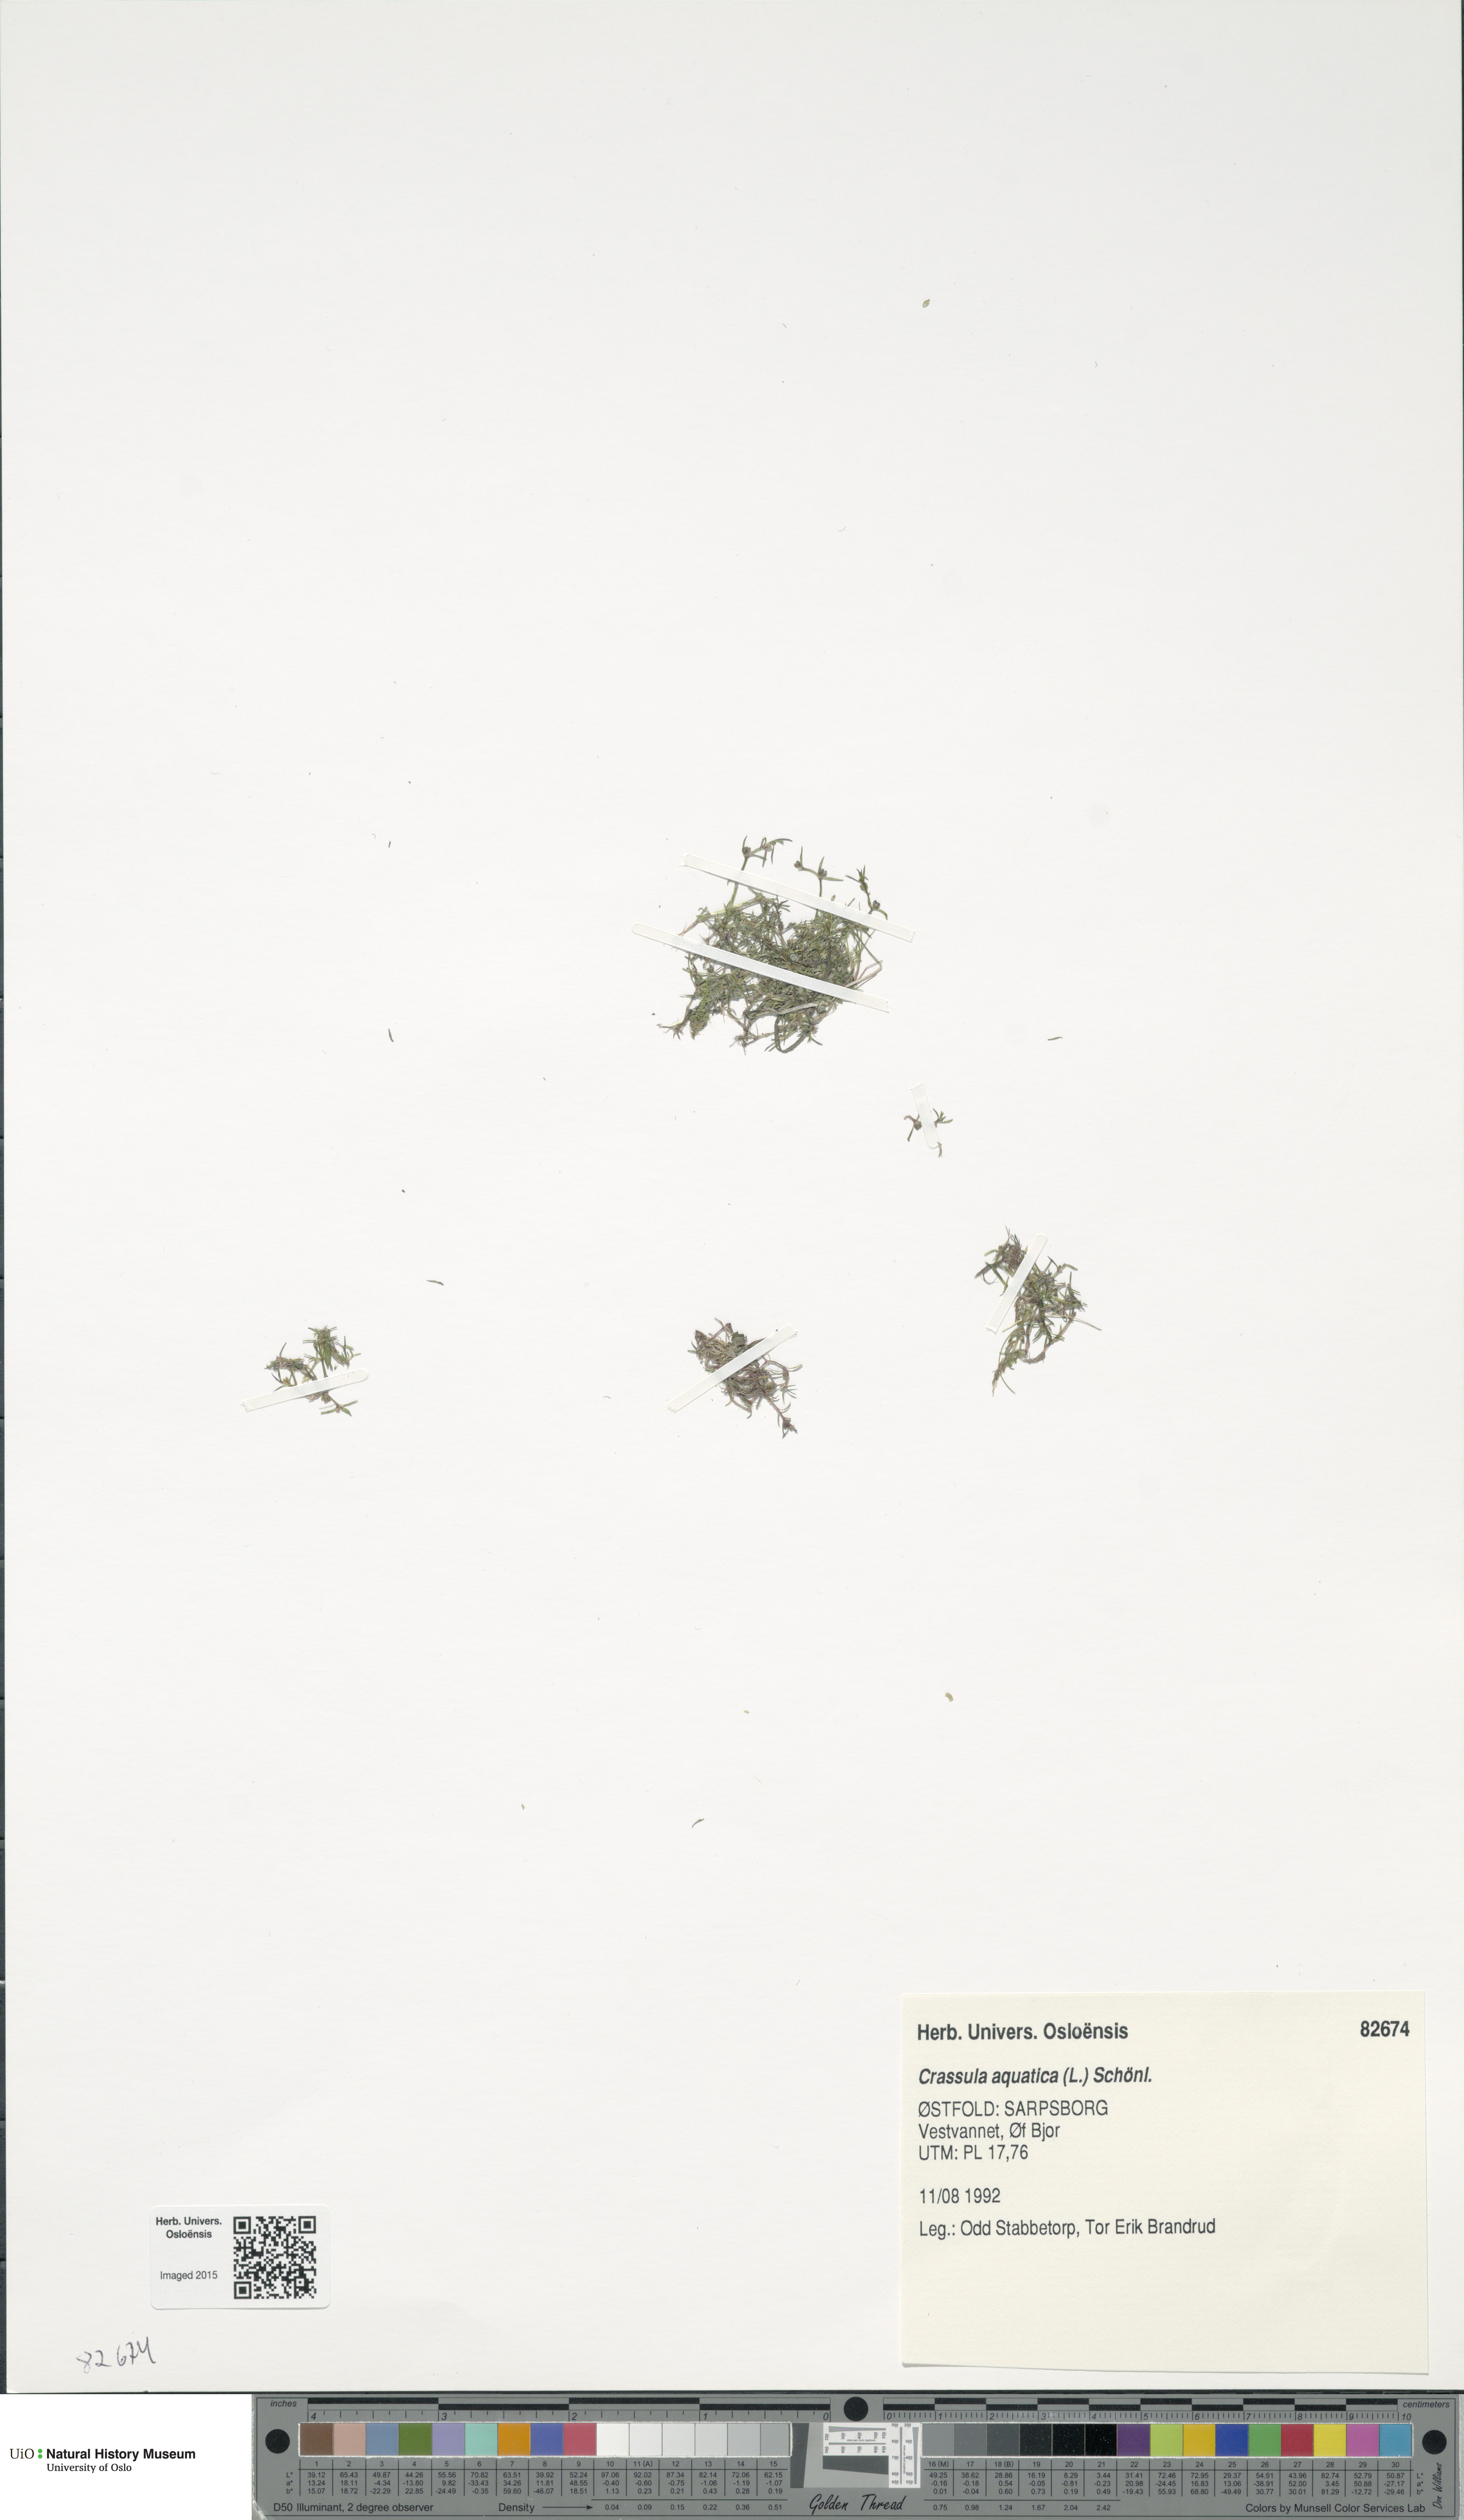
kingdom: Plantae
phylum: Tracheophyta
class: Magnoliopsida
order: Saxifragales
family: Crassulaceae
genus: Crassula
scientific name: Crassula aquatica
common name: Pigmyweed
